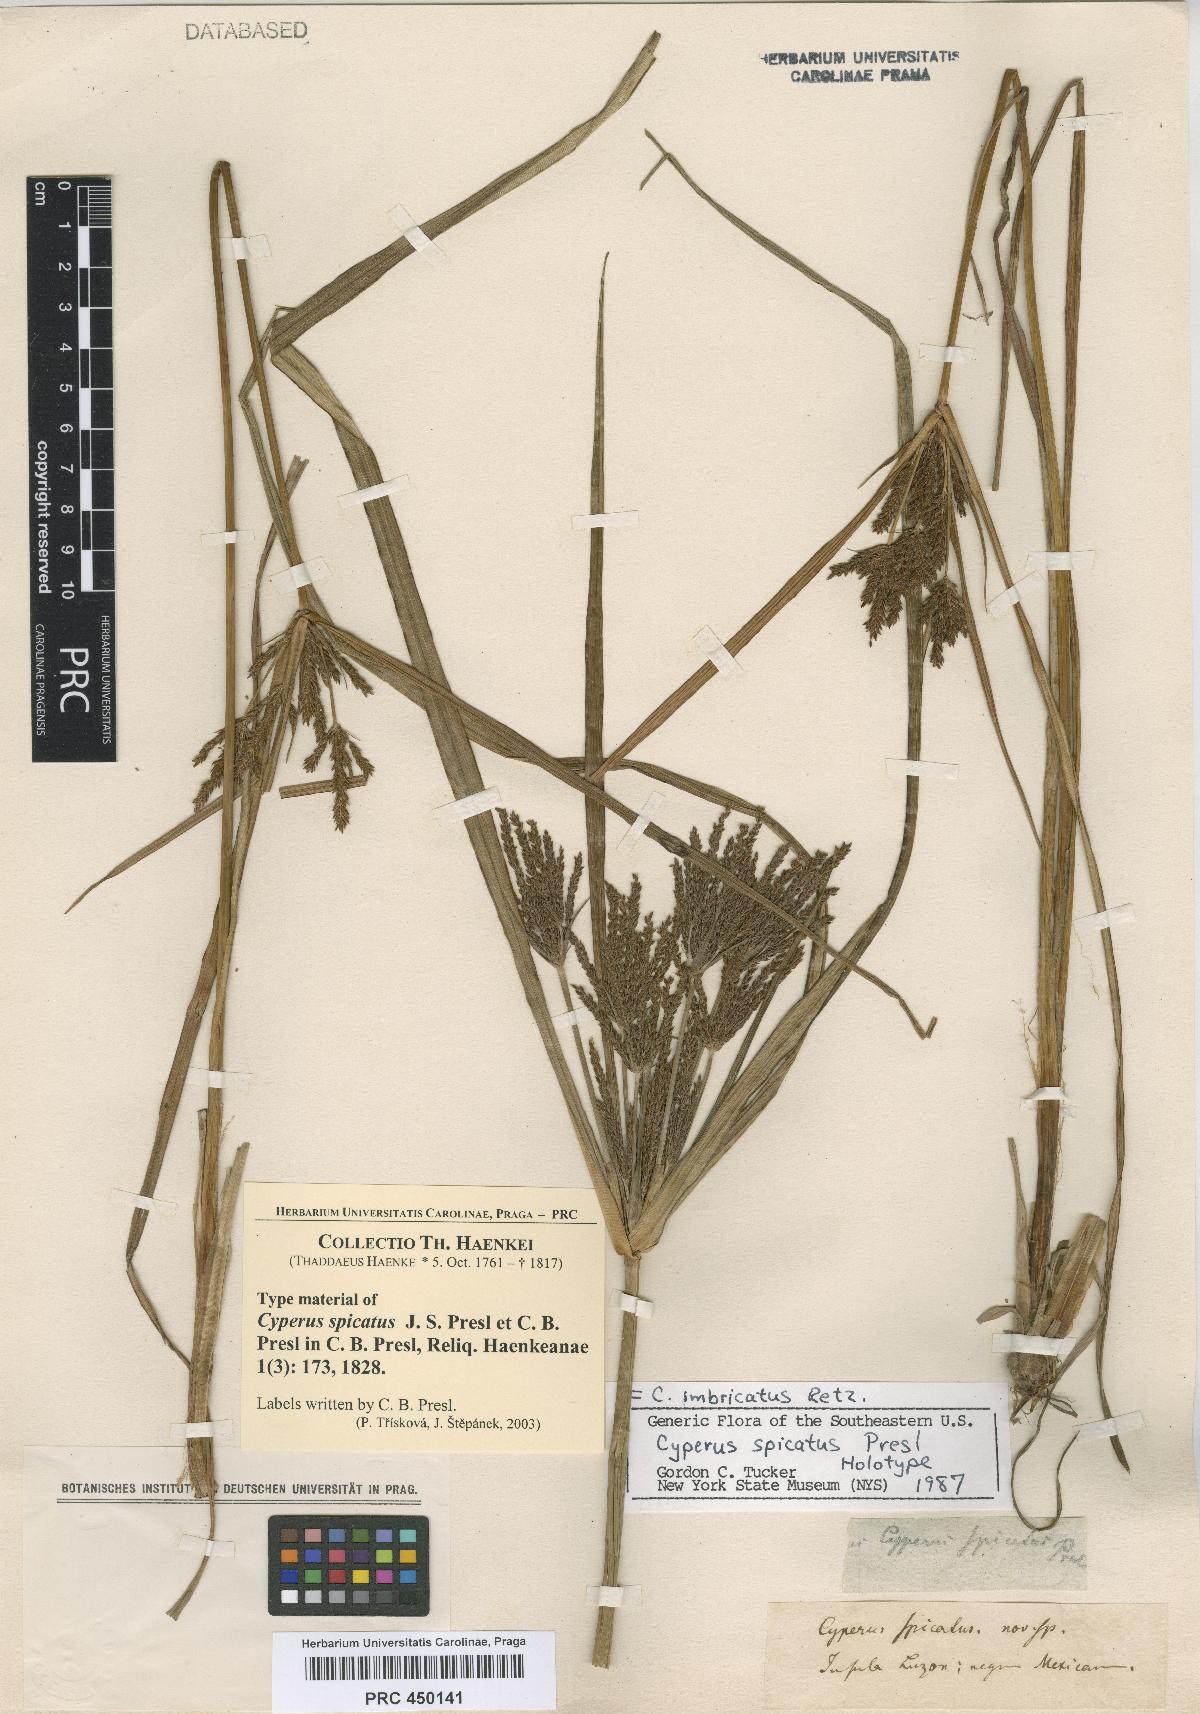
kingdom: Plantae
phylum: Tracheophyta
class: Liliopsida
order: Poales
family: Cyperaceae
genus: Cyperus
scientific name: Cyperus imbricatus
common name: Shingle flatsedge
